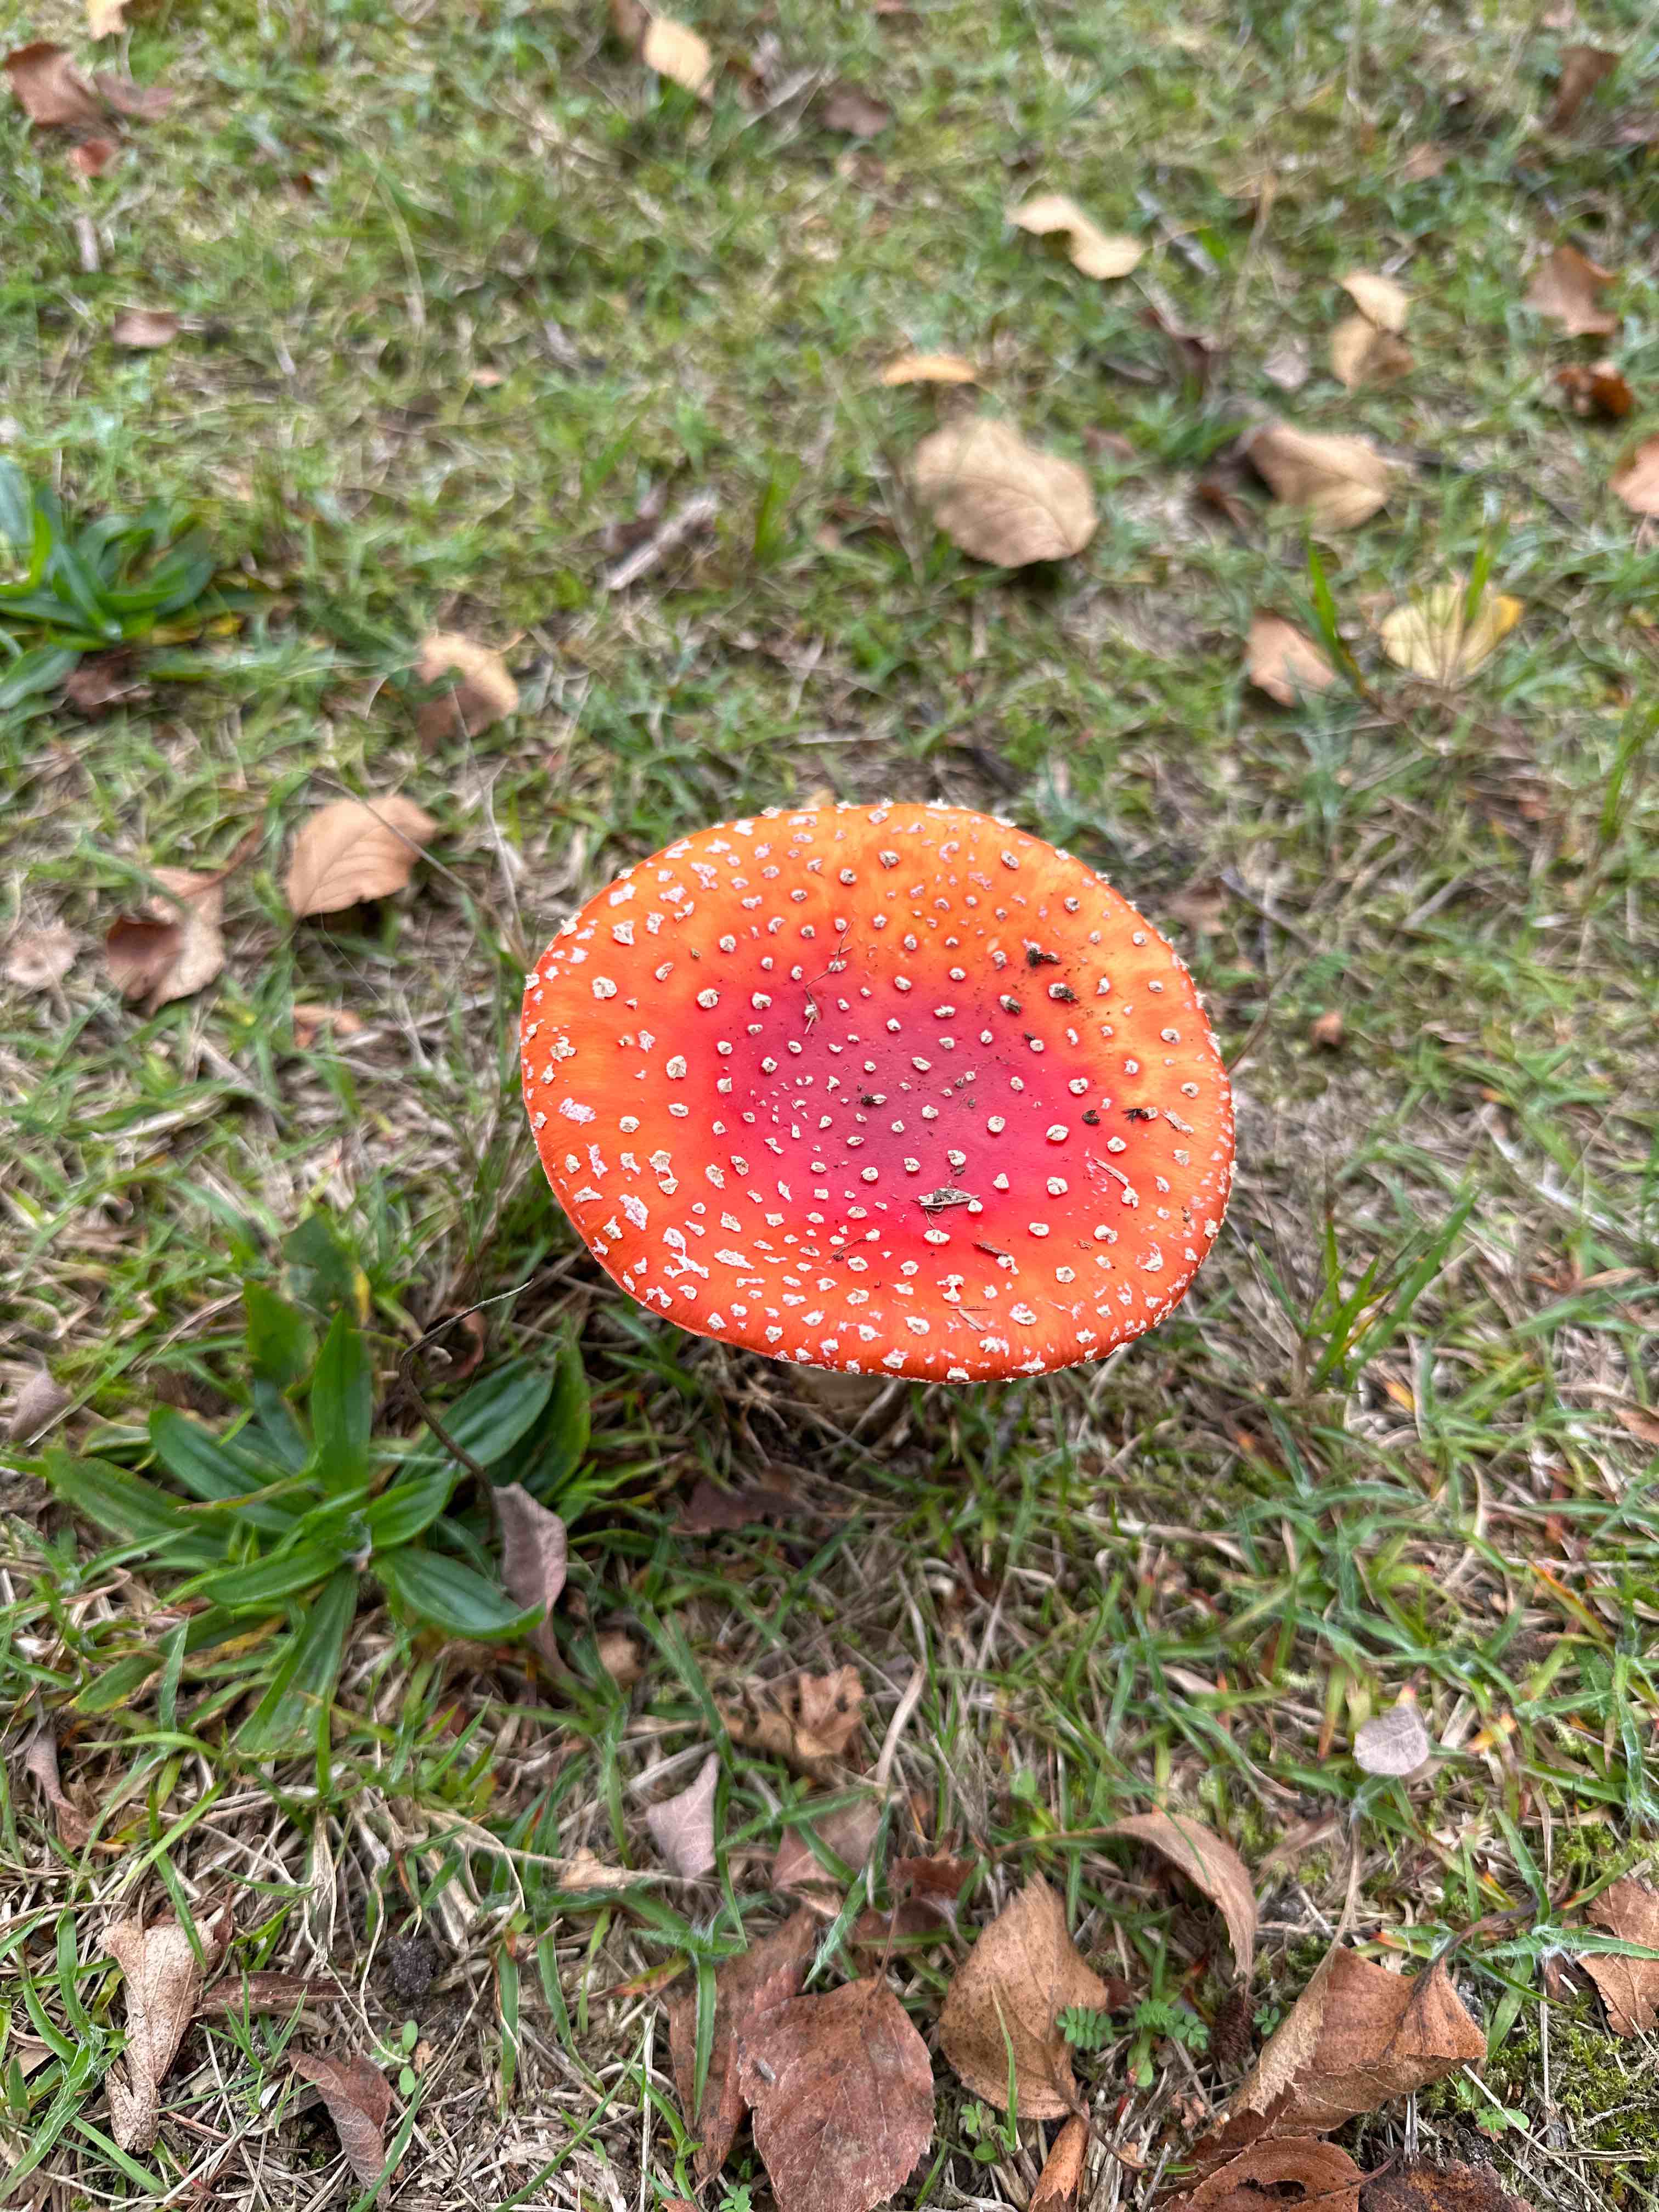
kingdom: Fungi
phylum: Basidiomycota
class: Agaricomycetes
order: Agaricales
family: Amanitaceae
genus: Amanita
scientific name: Amanita muscaria
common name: rød fluesvamp
